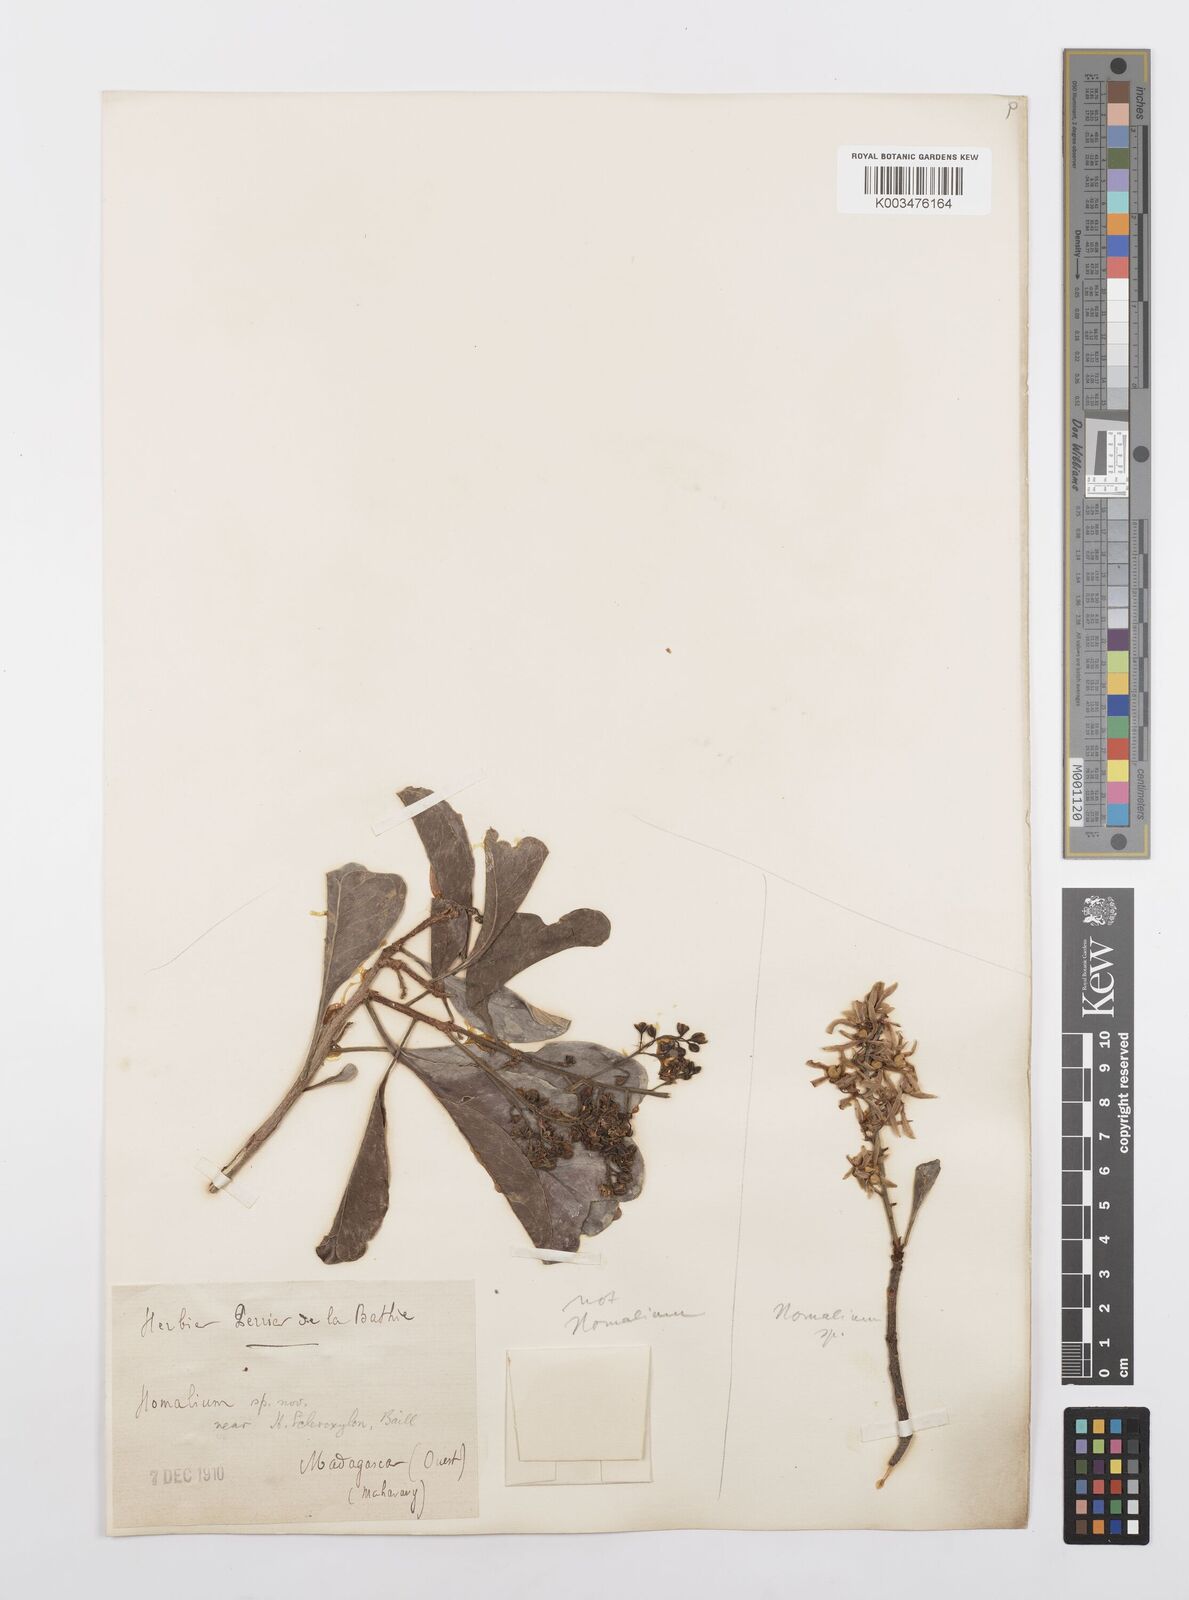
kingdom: Plantae
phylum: Tracheophyta
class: Magnoliopsida
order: Malpighiales
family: Salicaceae
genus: Homalium
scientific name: Homalium
